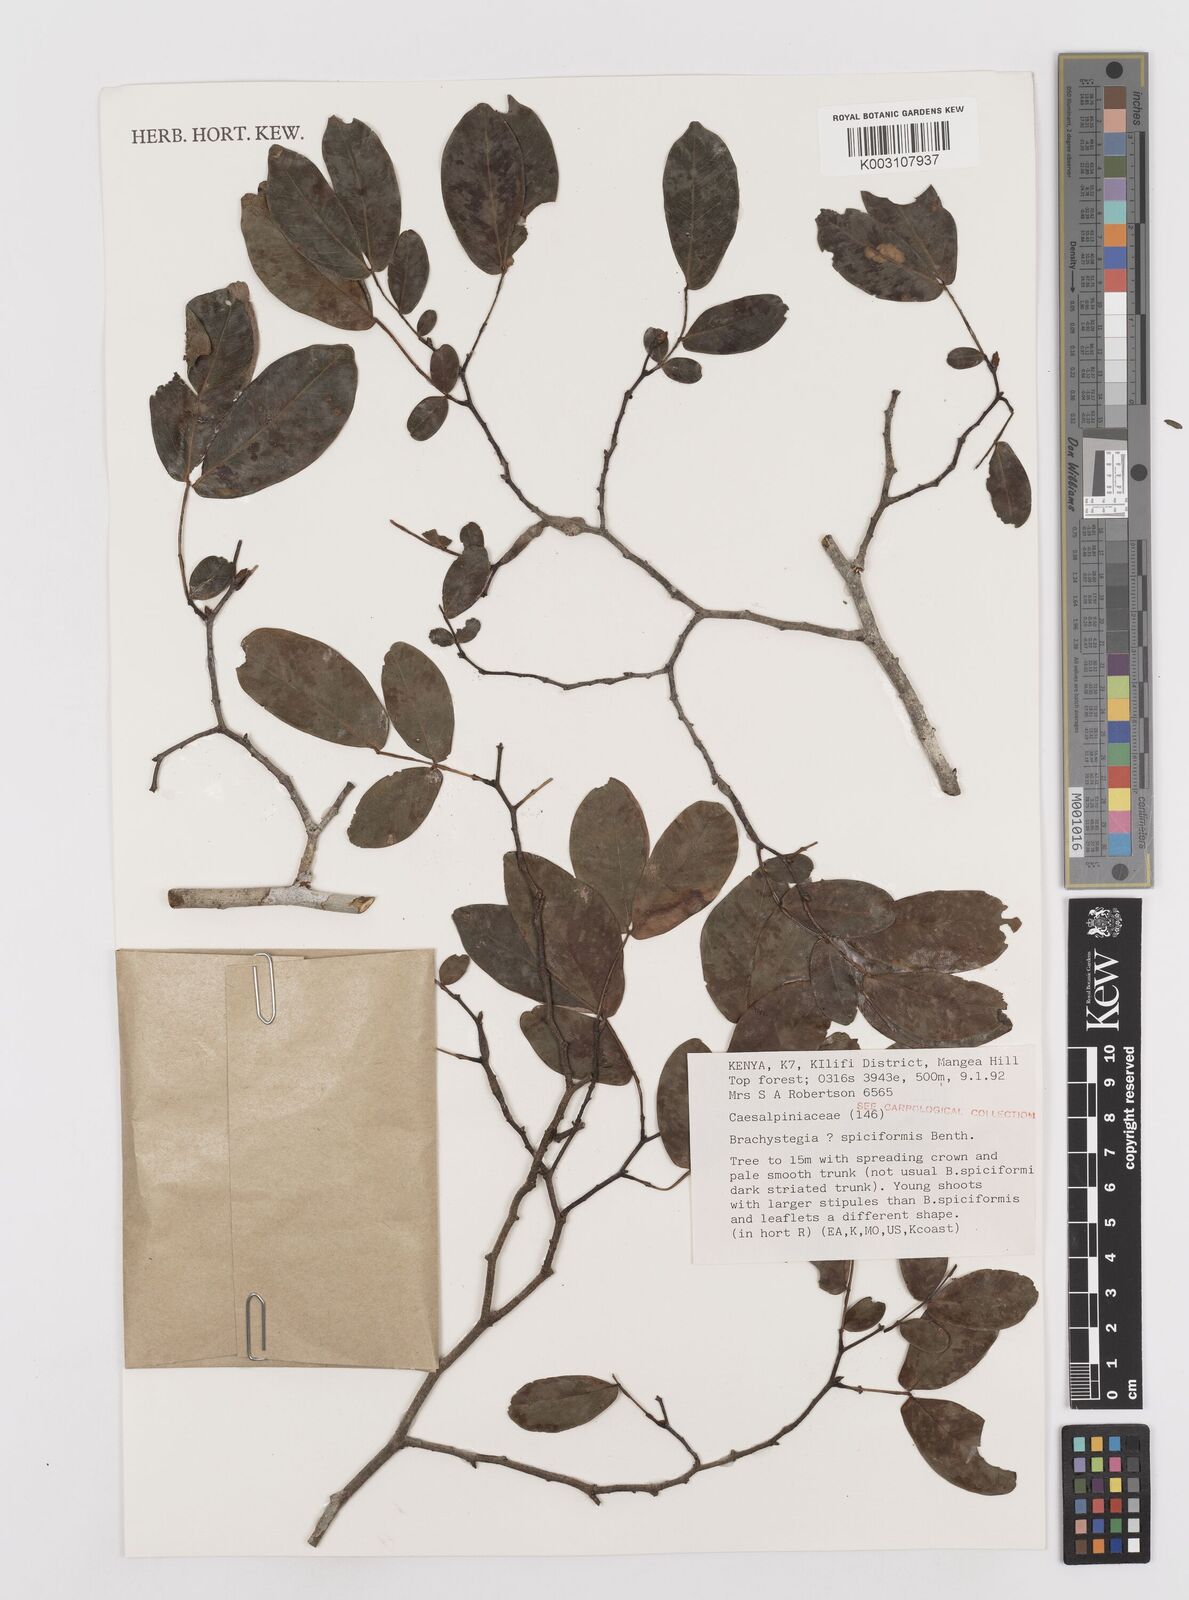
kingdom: Plantae
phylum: Tracheophyta
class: Magnoliopsida
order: Fabales
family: Fabaceae
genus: Brachystegia
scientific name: Brachystegia spiciformis
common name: Zebrawood
